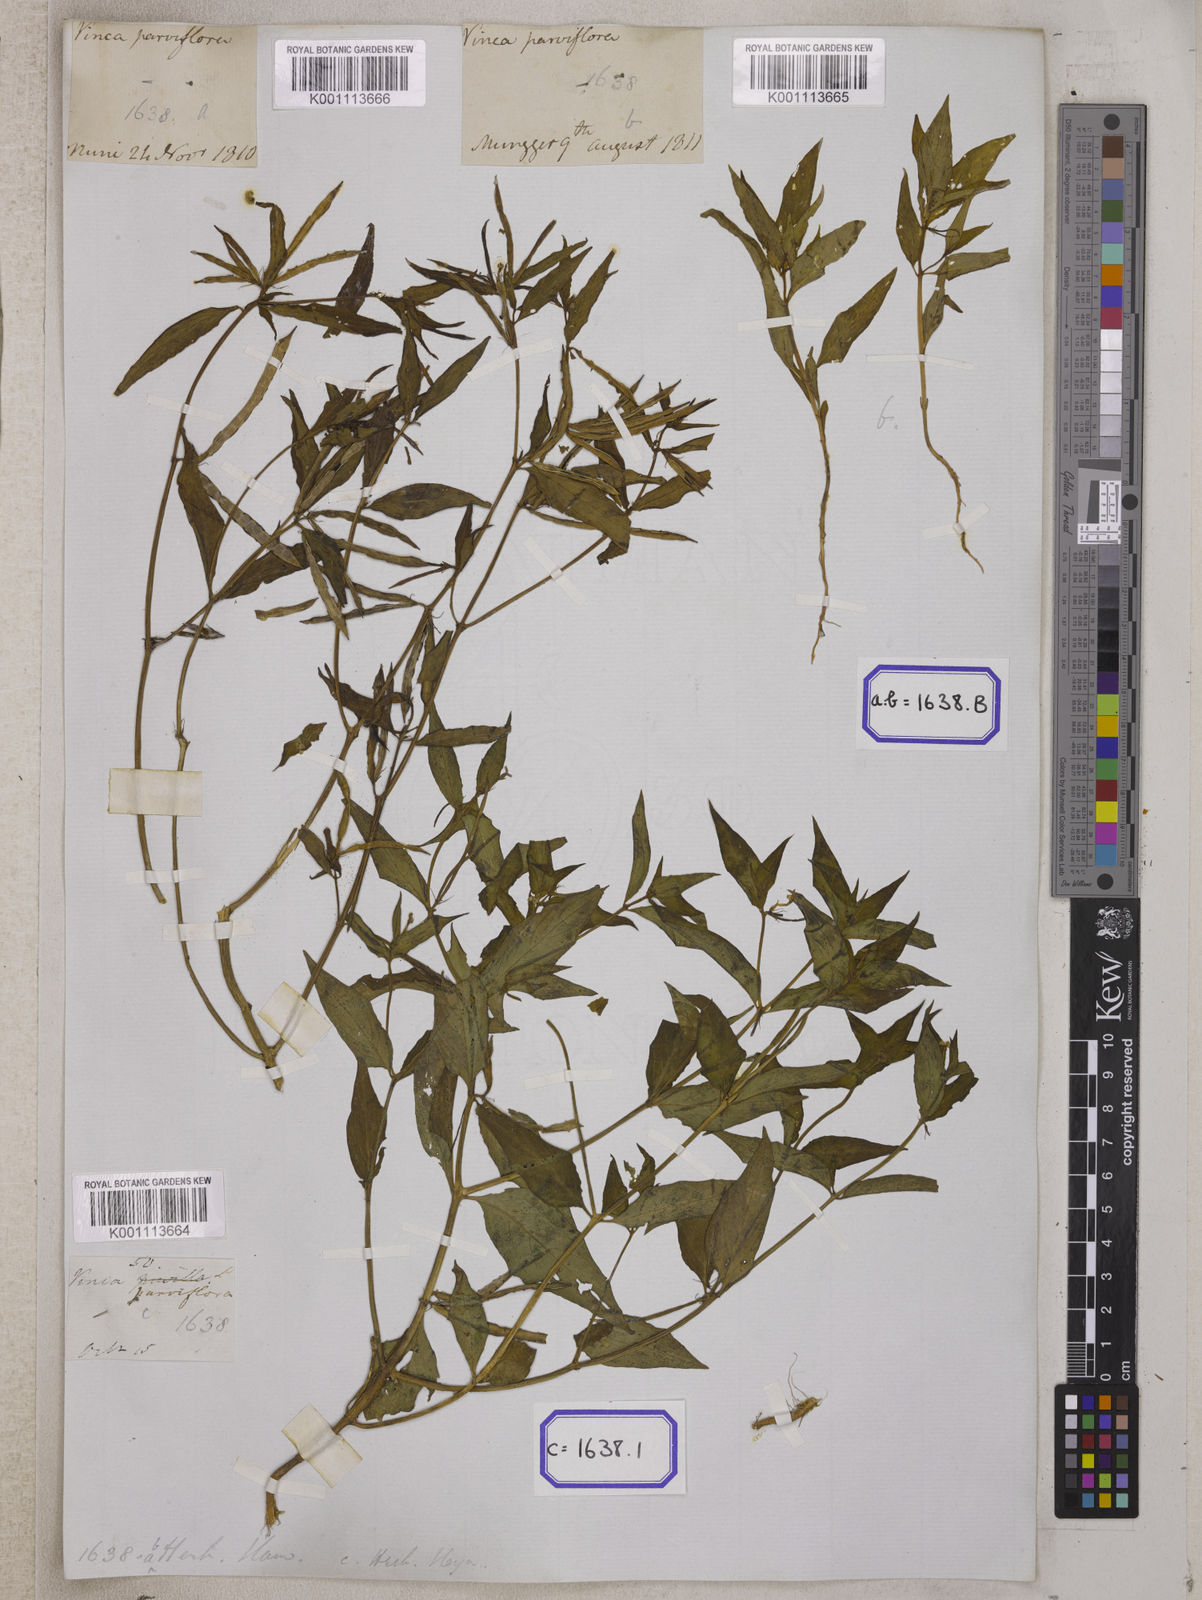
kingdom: Plantae
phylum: Tracheophyta
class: Magnoliopsida
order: Gentianales
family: Apocynaceae
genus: Vinca
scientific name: Vinca
